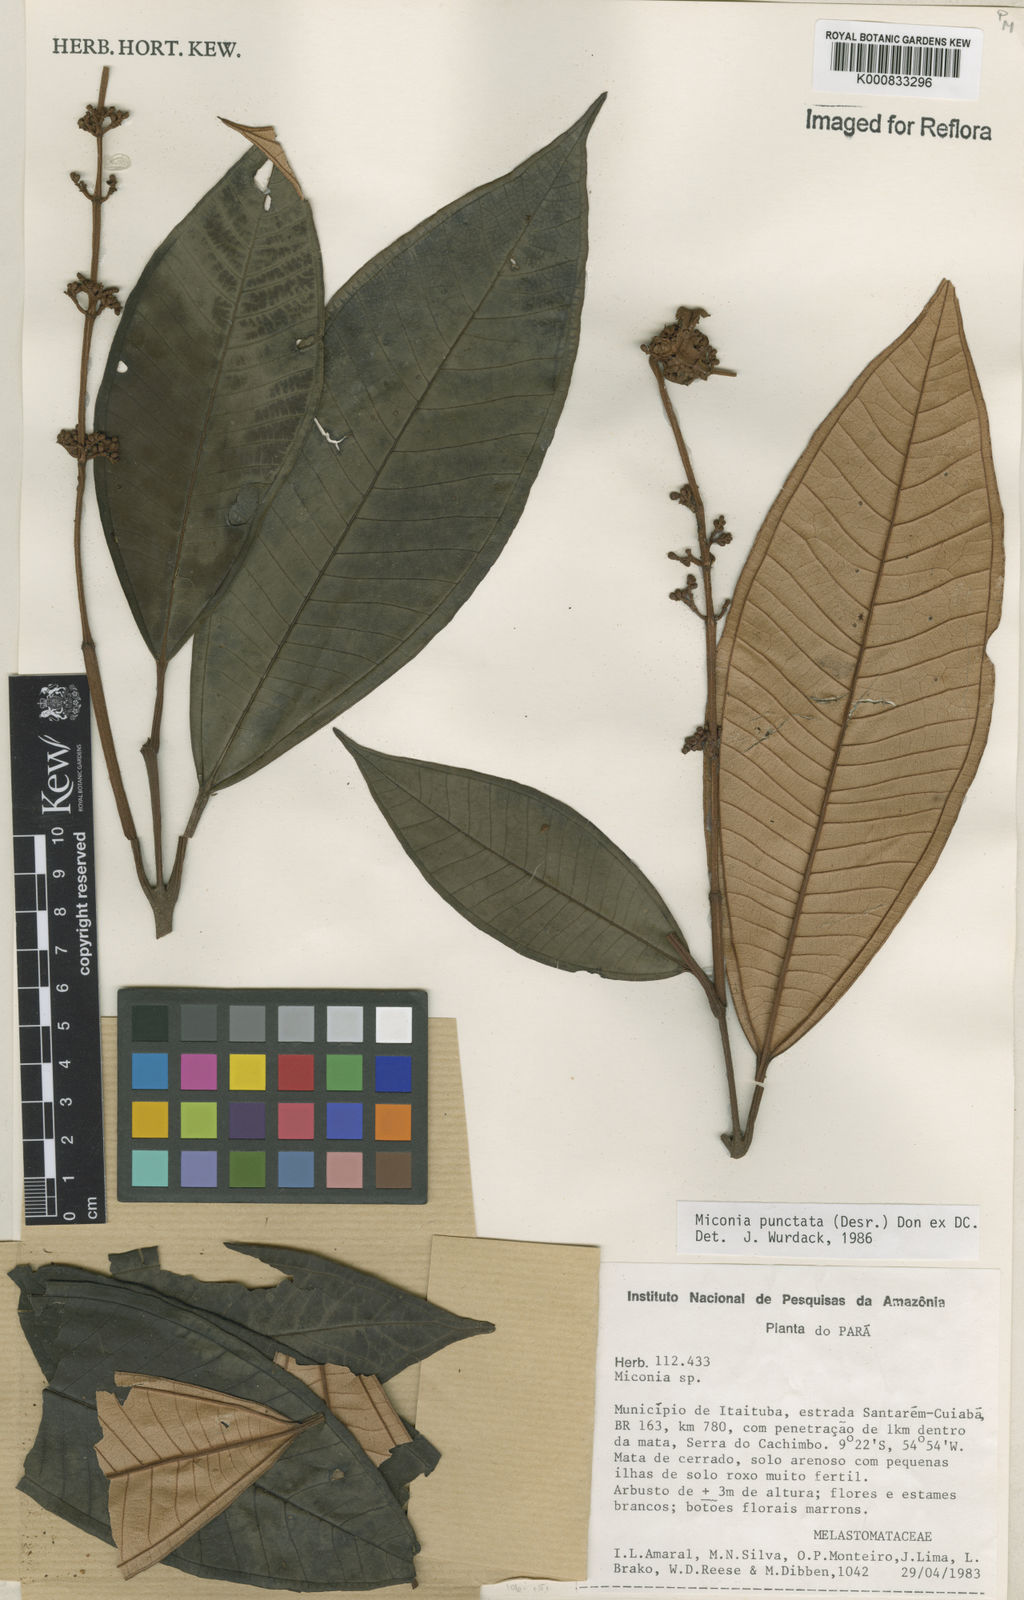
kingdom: Plantae
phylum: Tracheophyta
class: Magnoliopsida
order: Myrtales
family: Melastomataceae
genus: Miconia
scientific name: Miconia punctata
